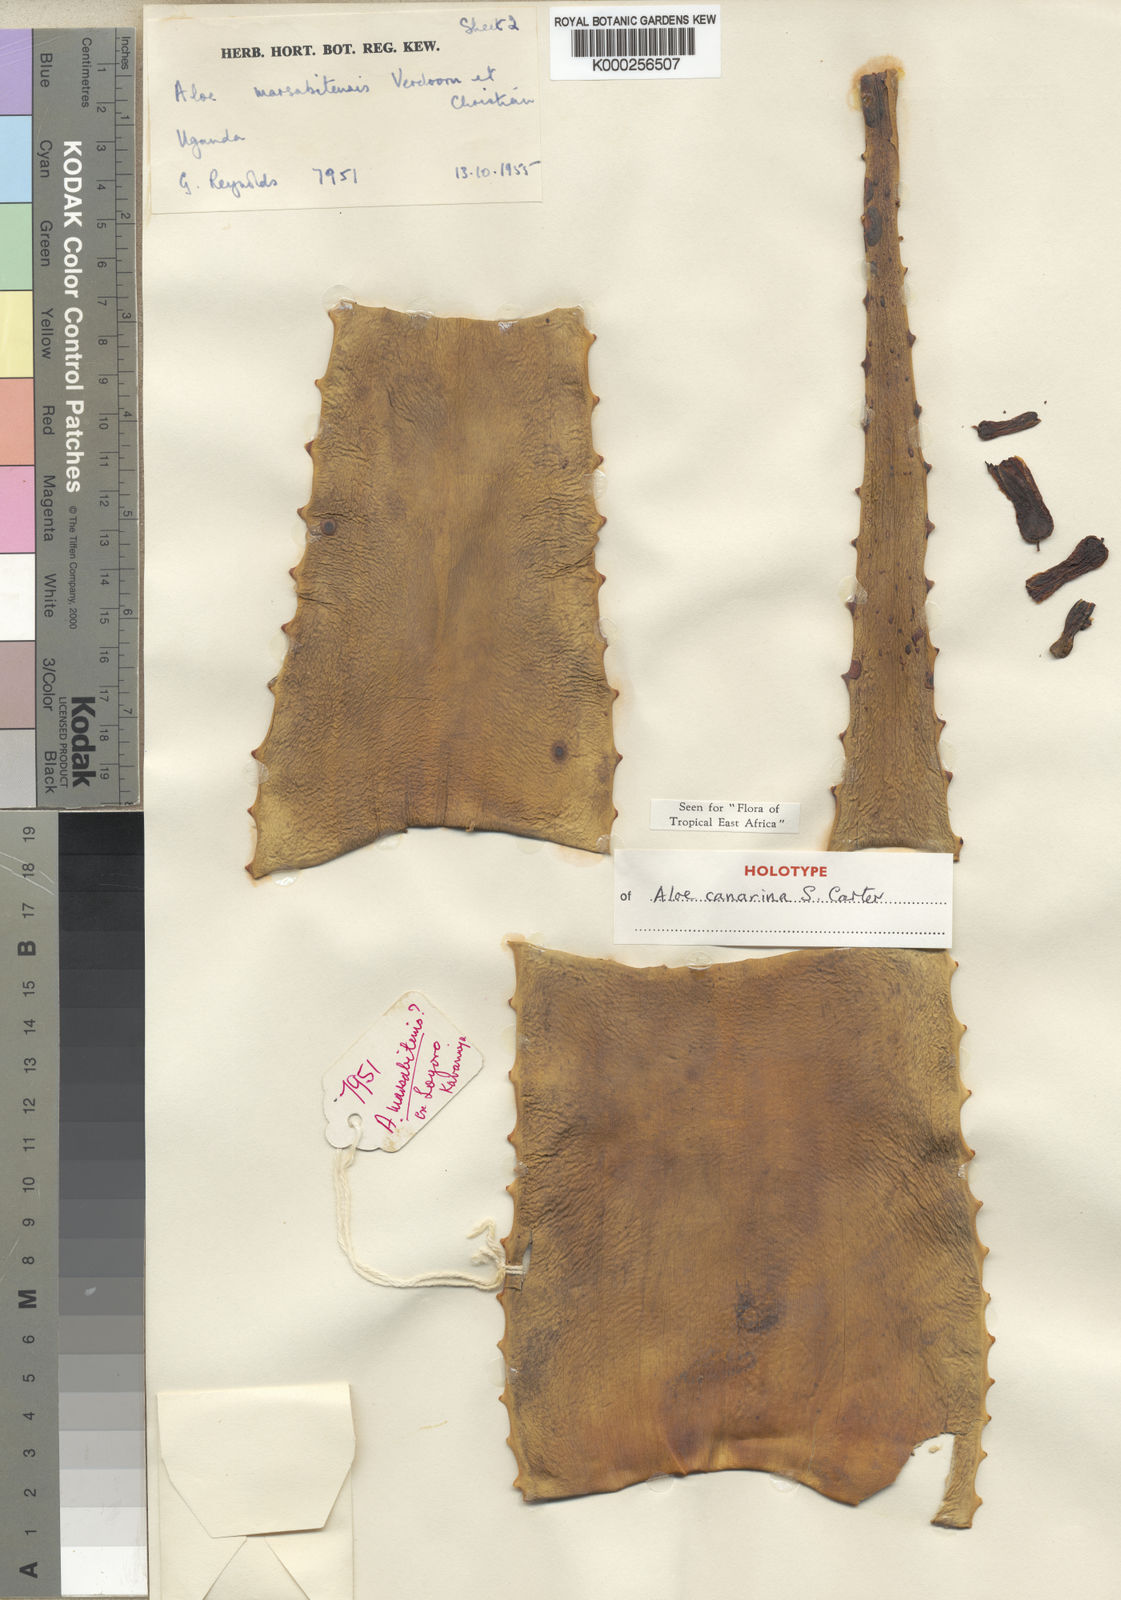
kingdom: Plantae
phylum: Tracheophyta
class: Liliopsida
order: Asparagales
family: Asphodelaceae
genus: Aloe
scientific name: Aloe canarina
